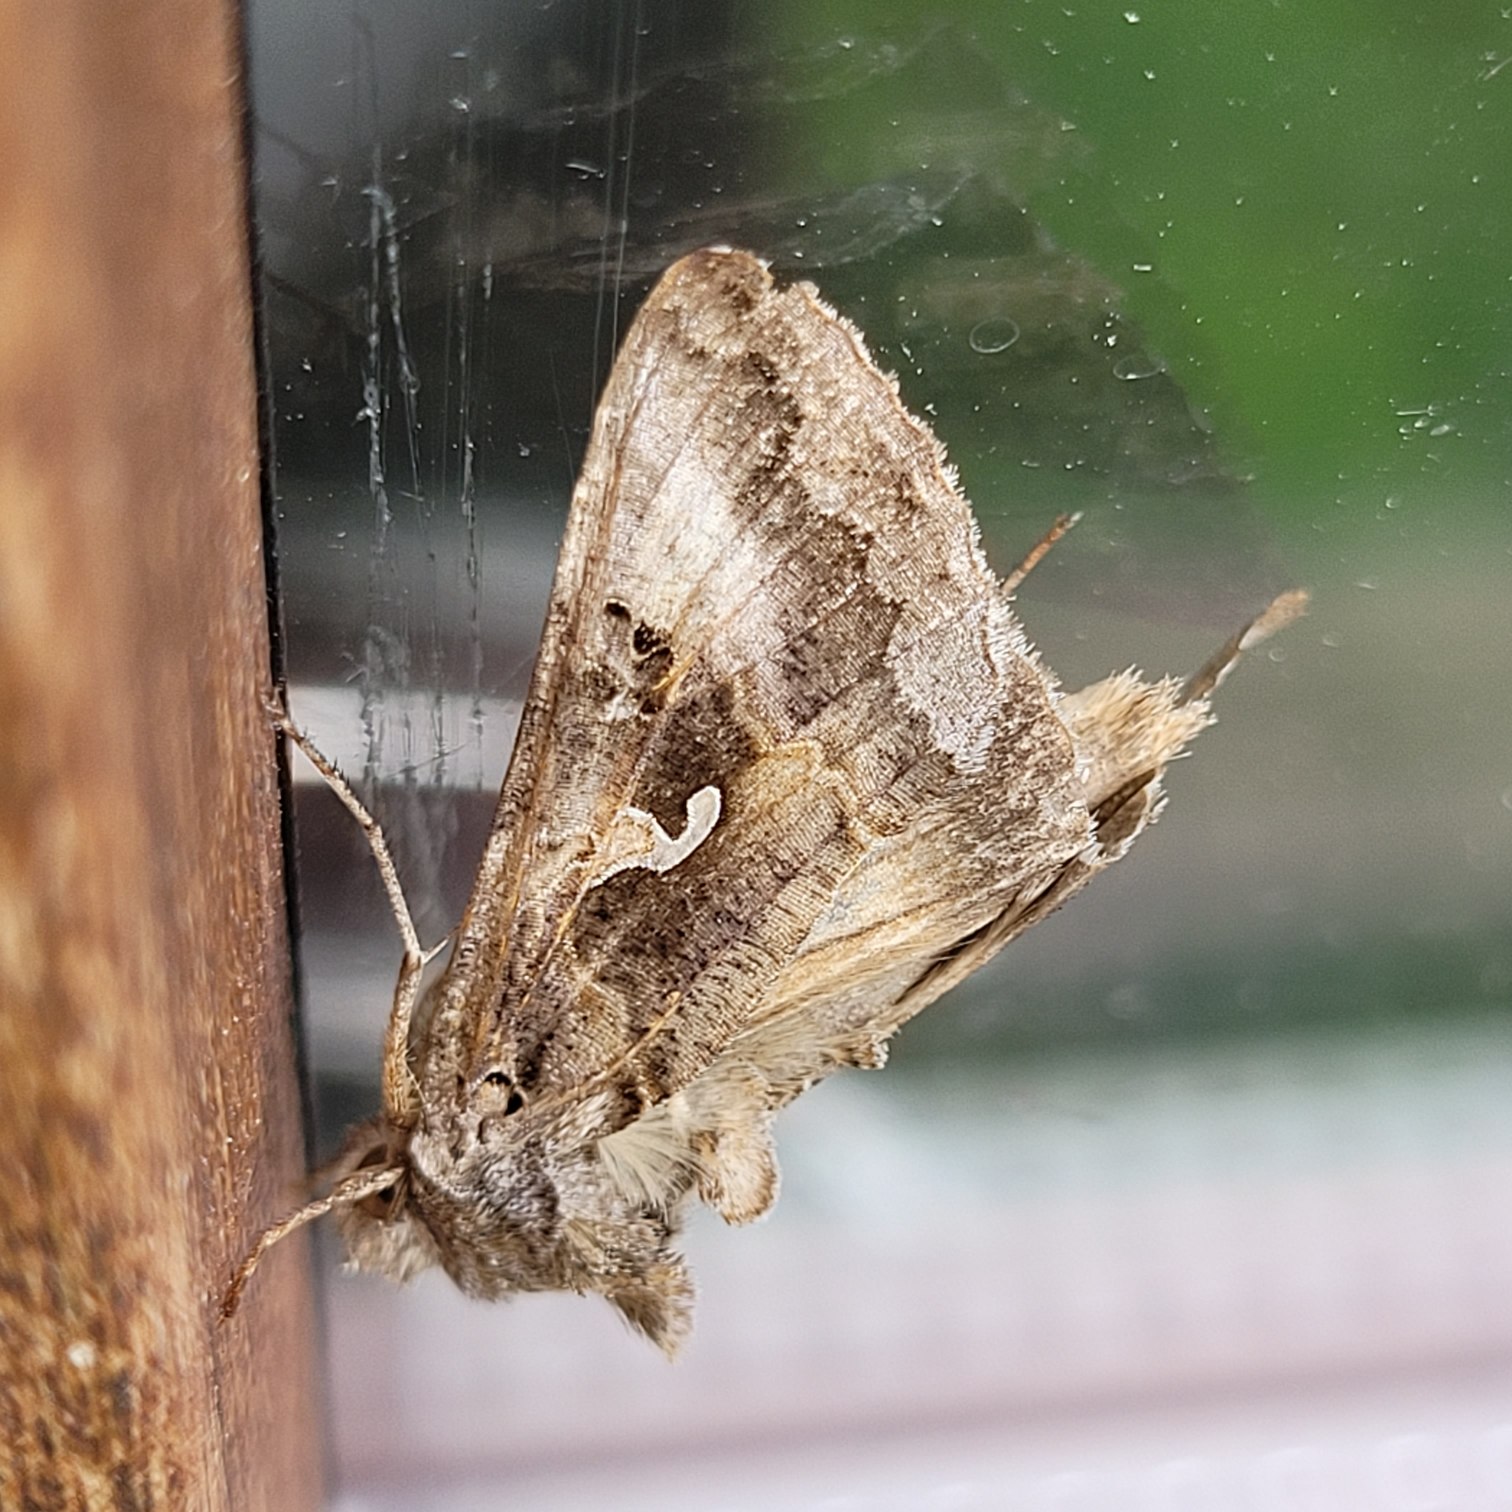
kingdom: Animalia
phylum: Arthropoda
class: Insecta
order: Lepidoptera
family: Noctuidae
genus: Autographa
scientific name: Autographa gamma
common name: Gammaugle
